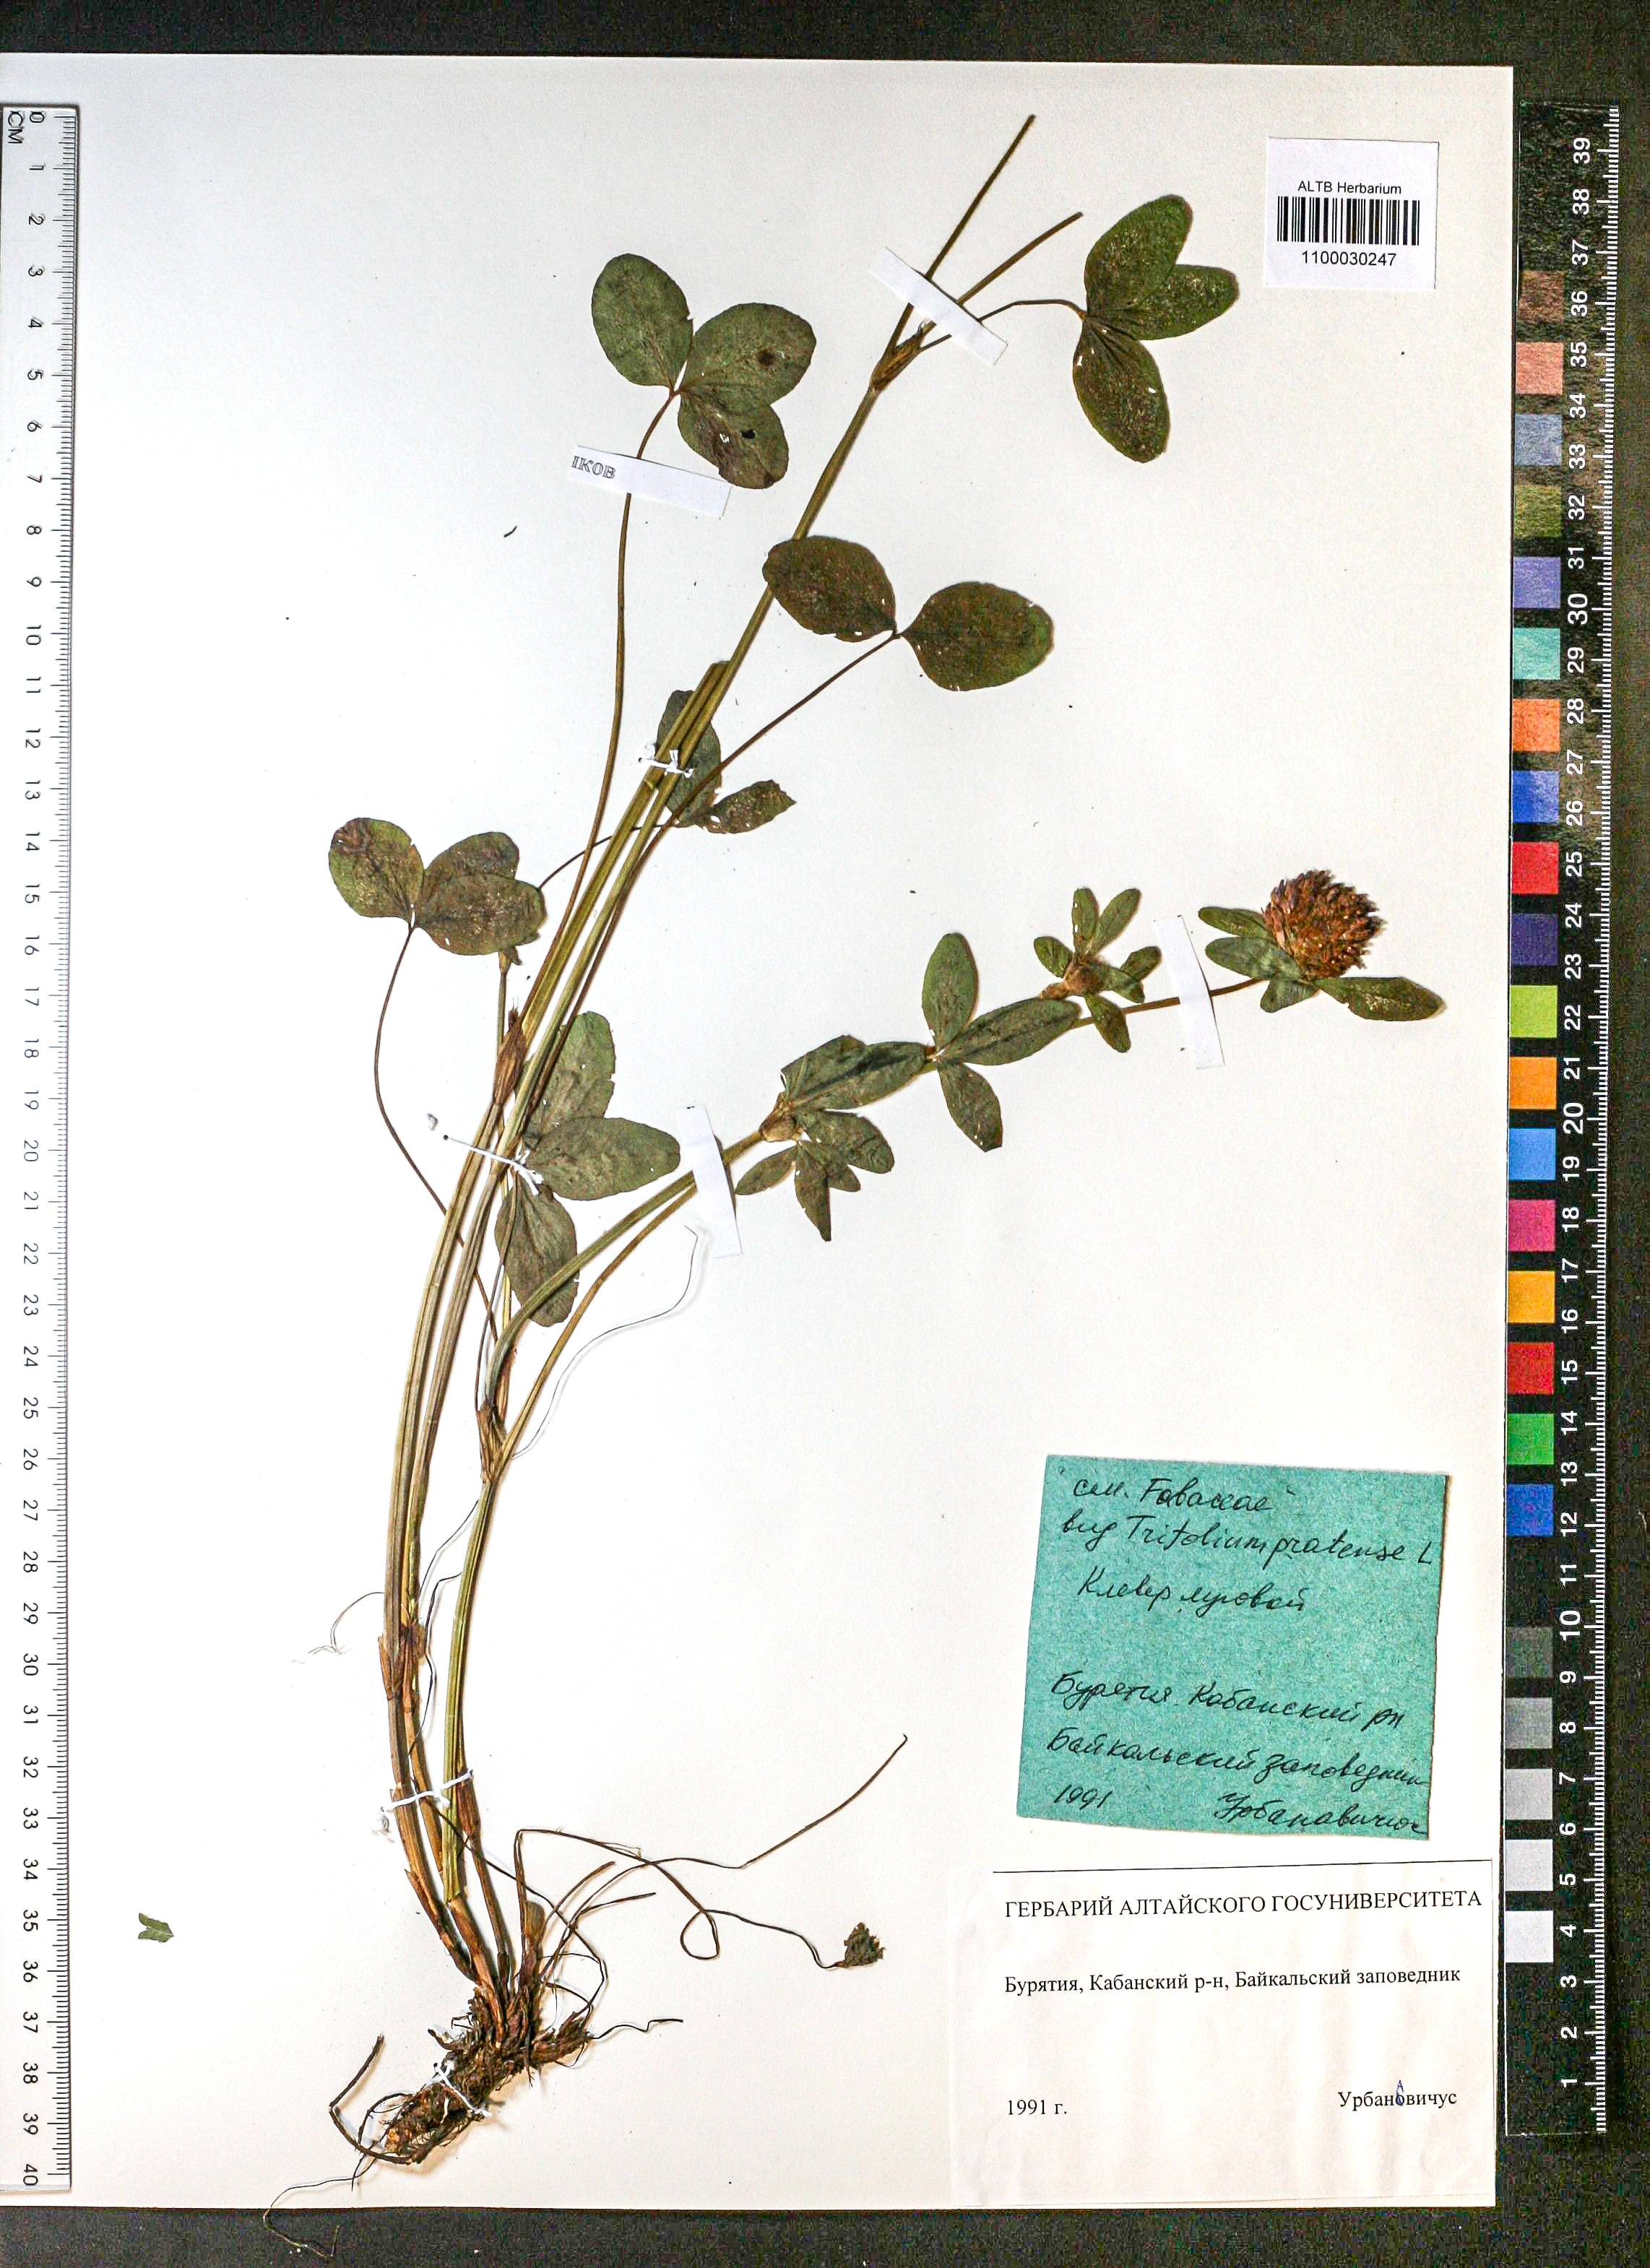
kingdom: Plantae
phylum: Tracheophyta
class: Magnoliopsida
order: Fabales
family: Fabaceae
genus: Trifolium
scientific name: Trifolium pratense
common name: Red clover
